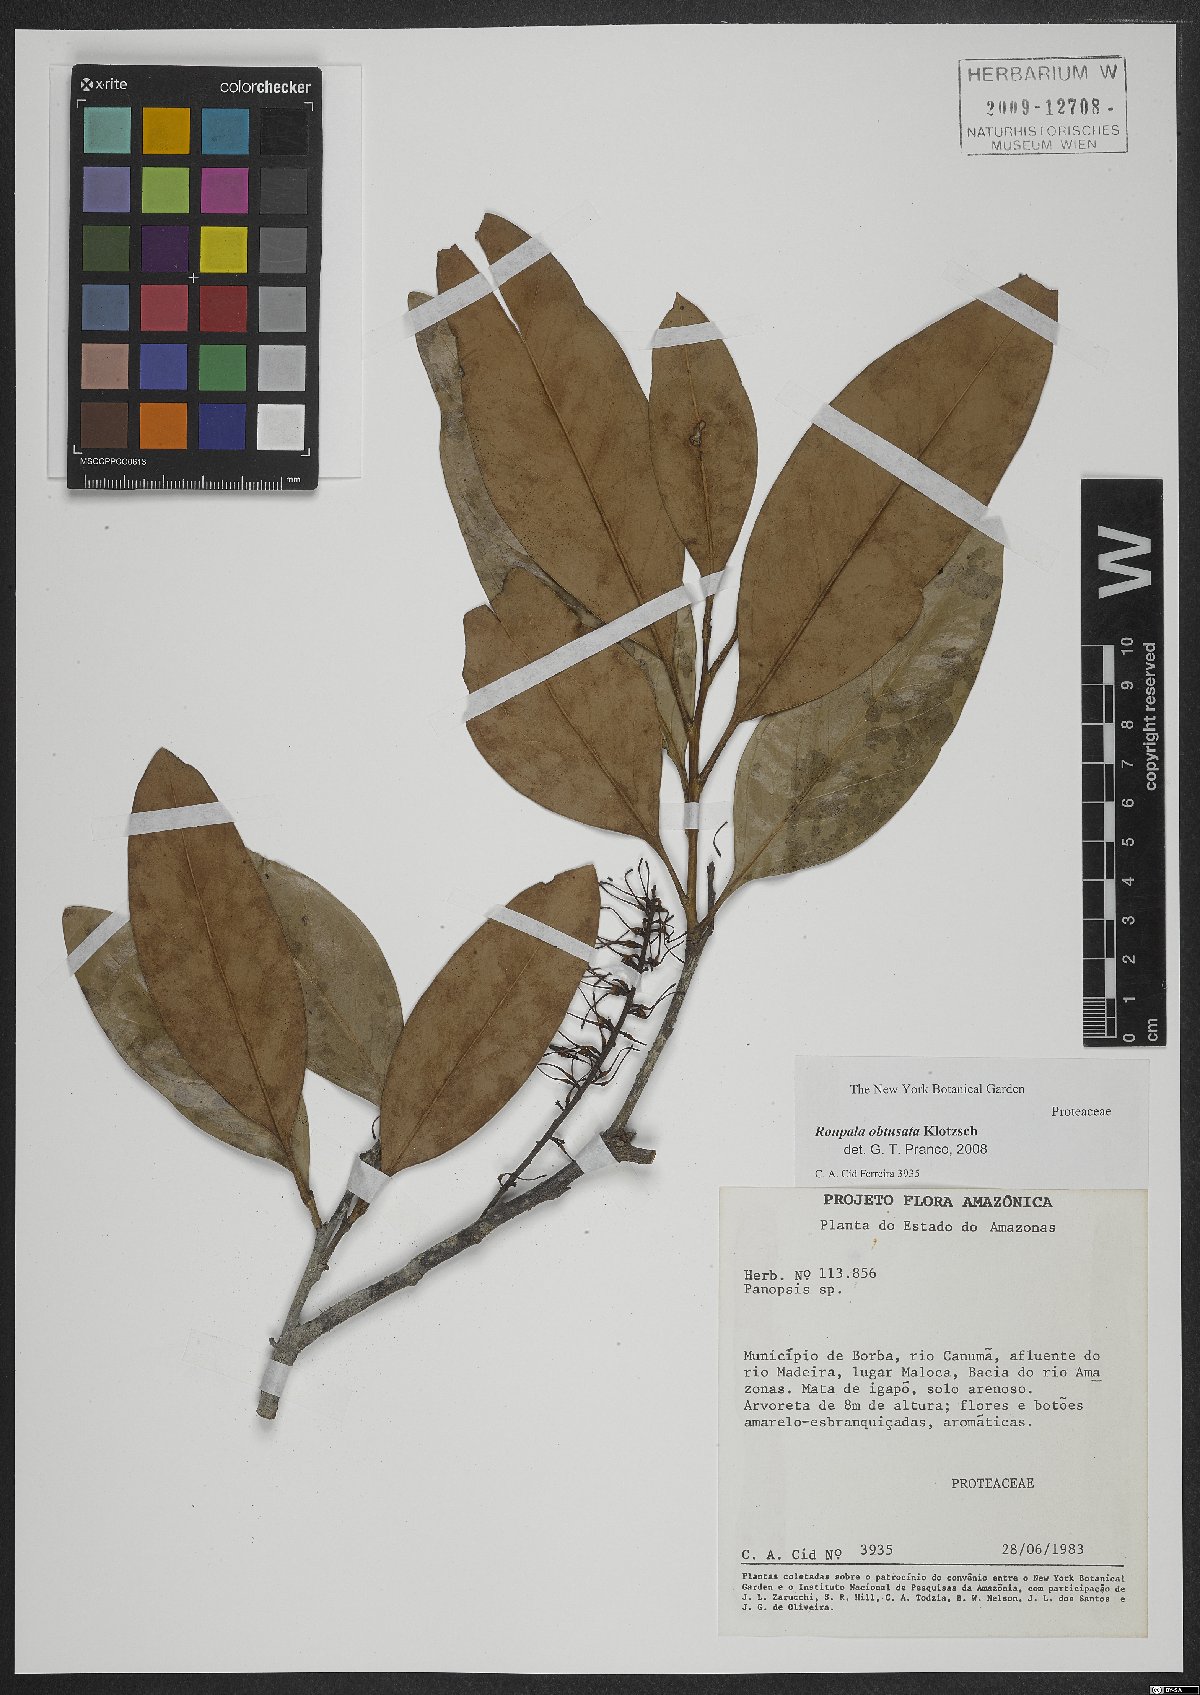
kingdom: Plantae
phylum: Tracheophyta
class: Magnoliopsida
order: Proteales
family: Proteaceae
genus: Roupala
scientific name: Roupala obtusata
